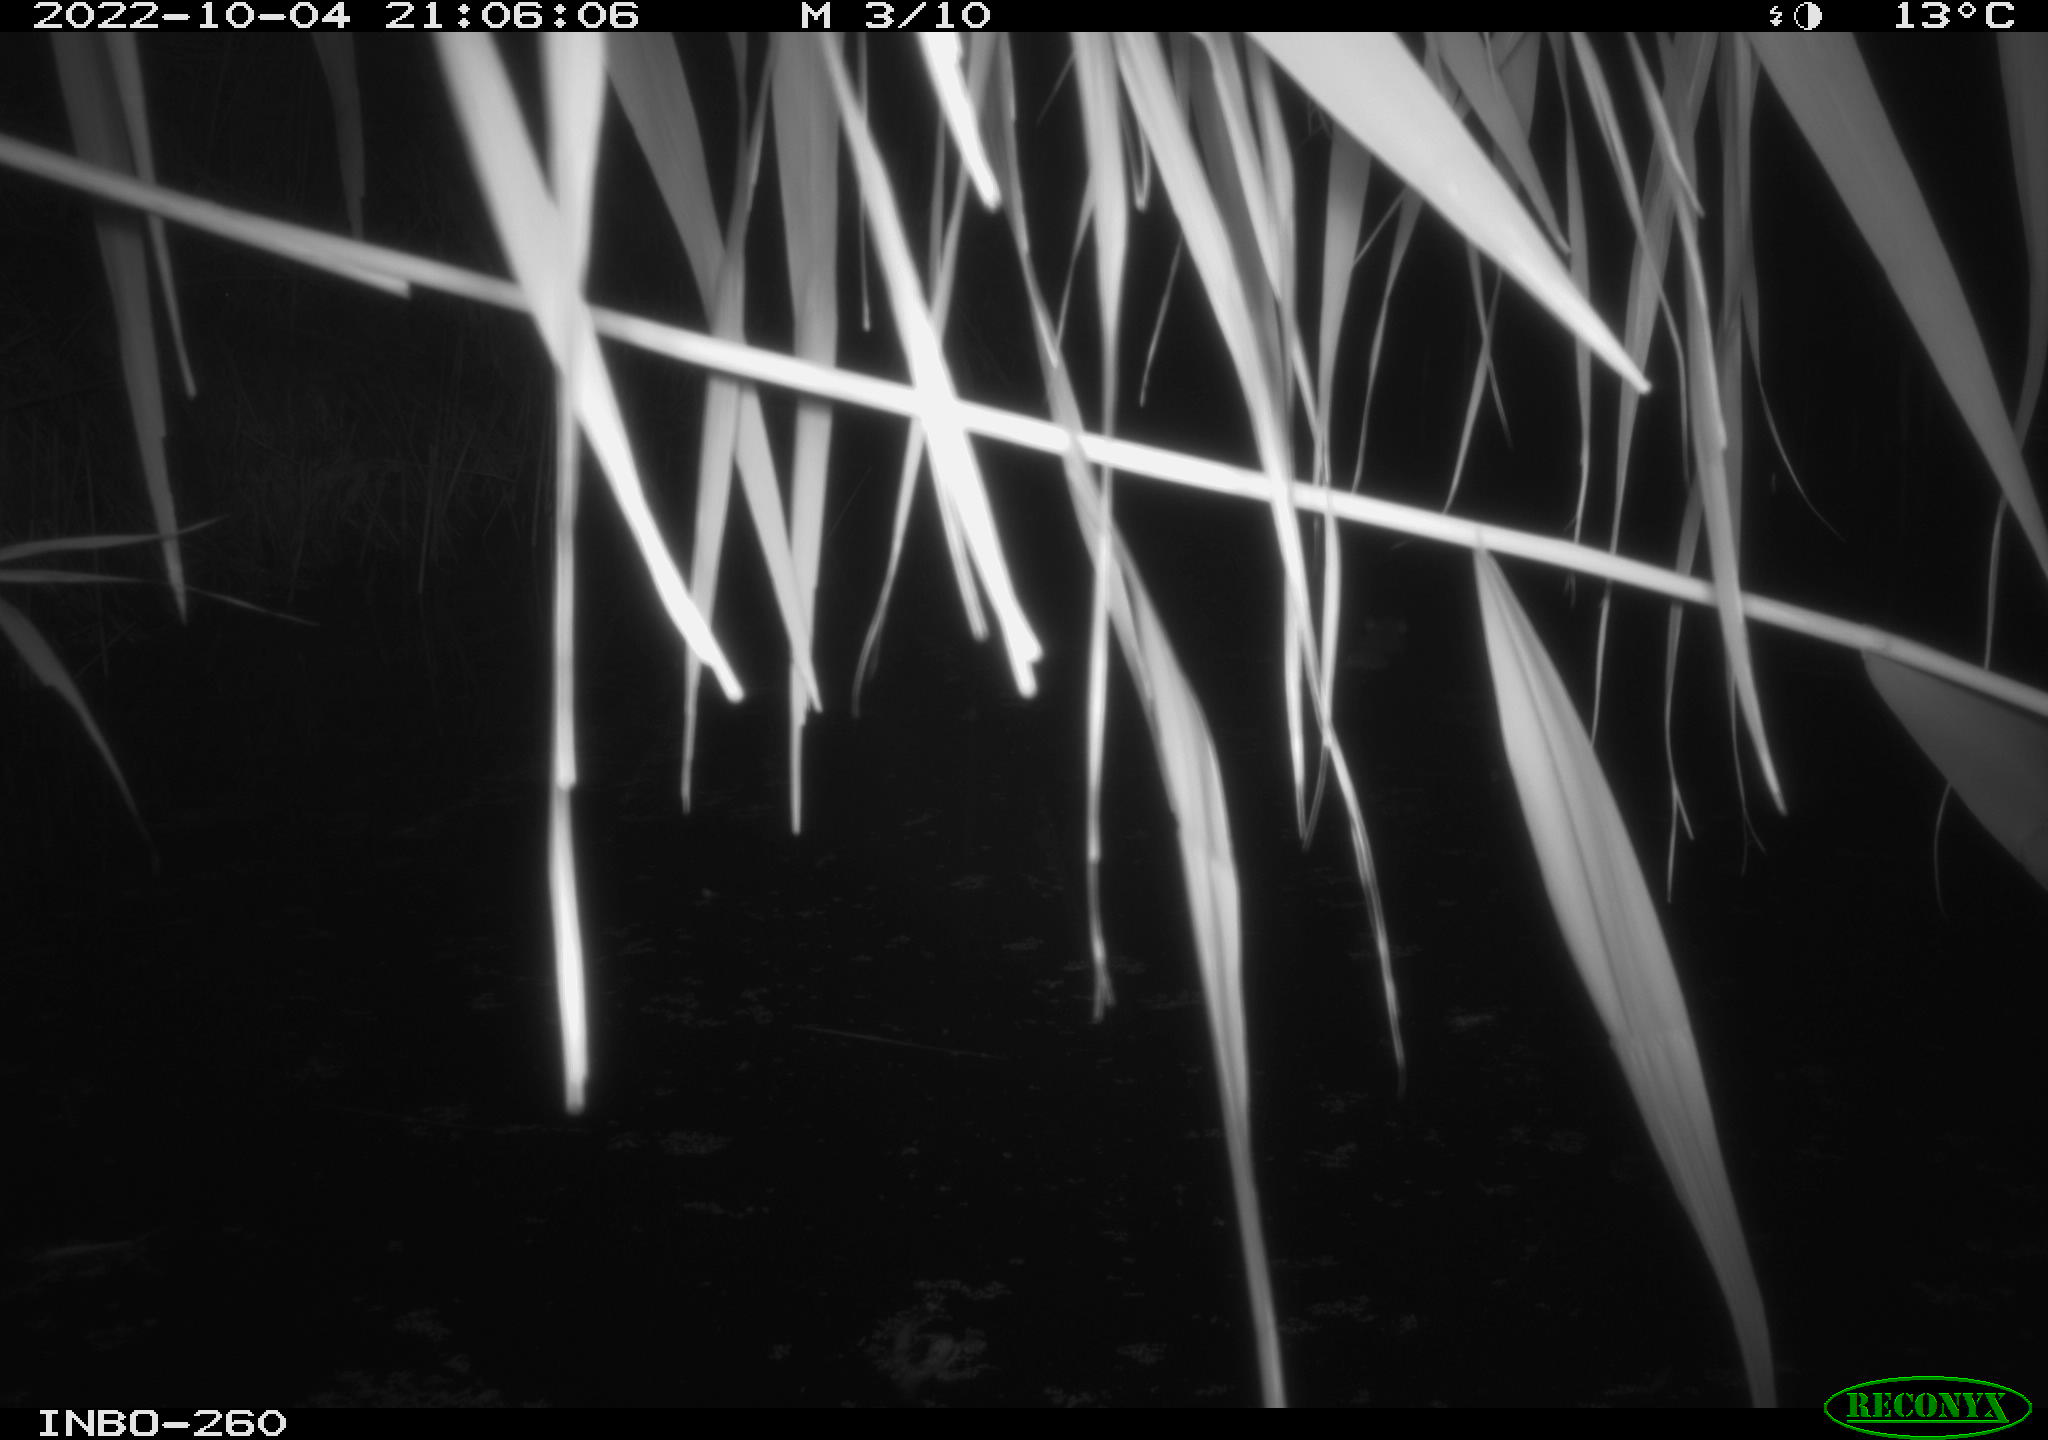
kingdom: Animalia
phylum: Chordata
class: Mammalia
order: Rodentia
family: Muridae
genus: Rattus
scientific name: Rattus norvegicus
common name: Brown rat
